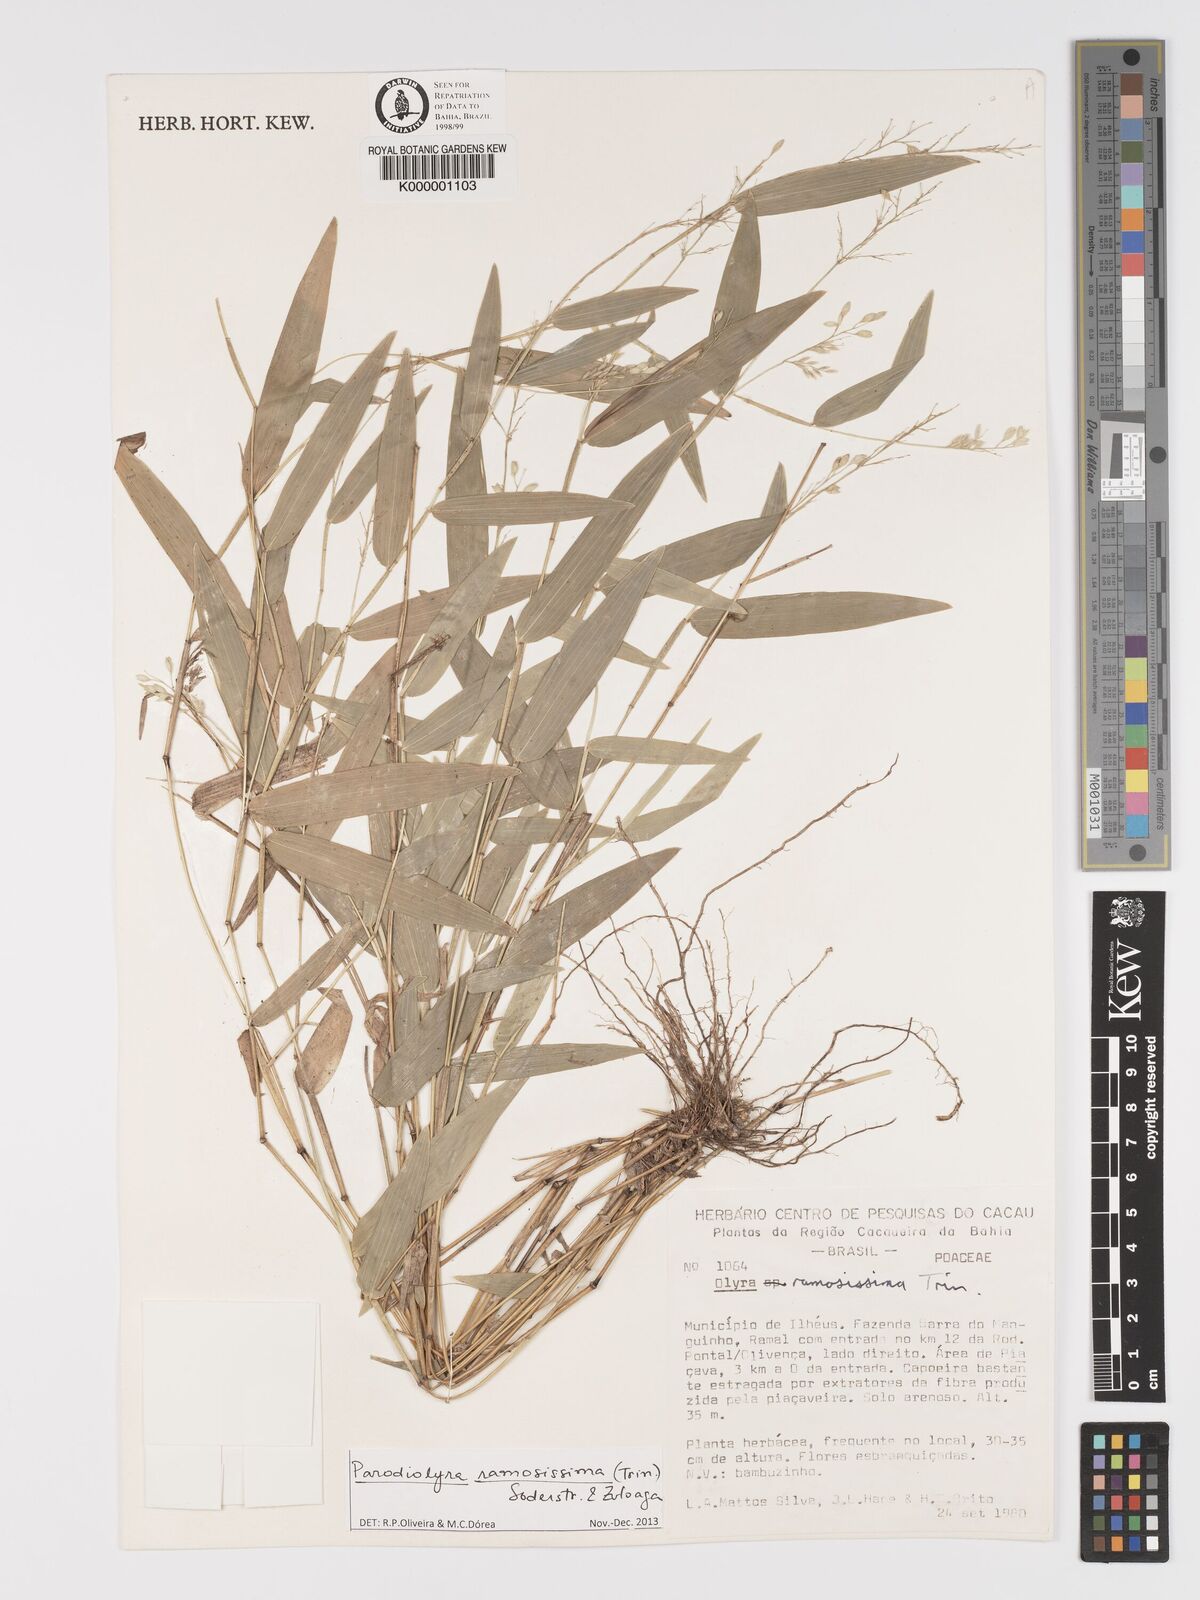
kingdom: Plantae
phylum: Tracheophyta
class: Liliopsida
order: Poales
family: Poaceae
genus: Parodiolyra
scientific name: Parodiolyra ramosissima
